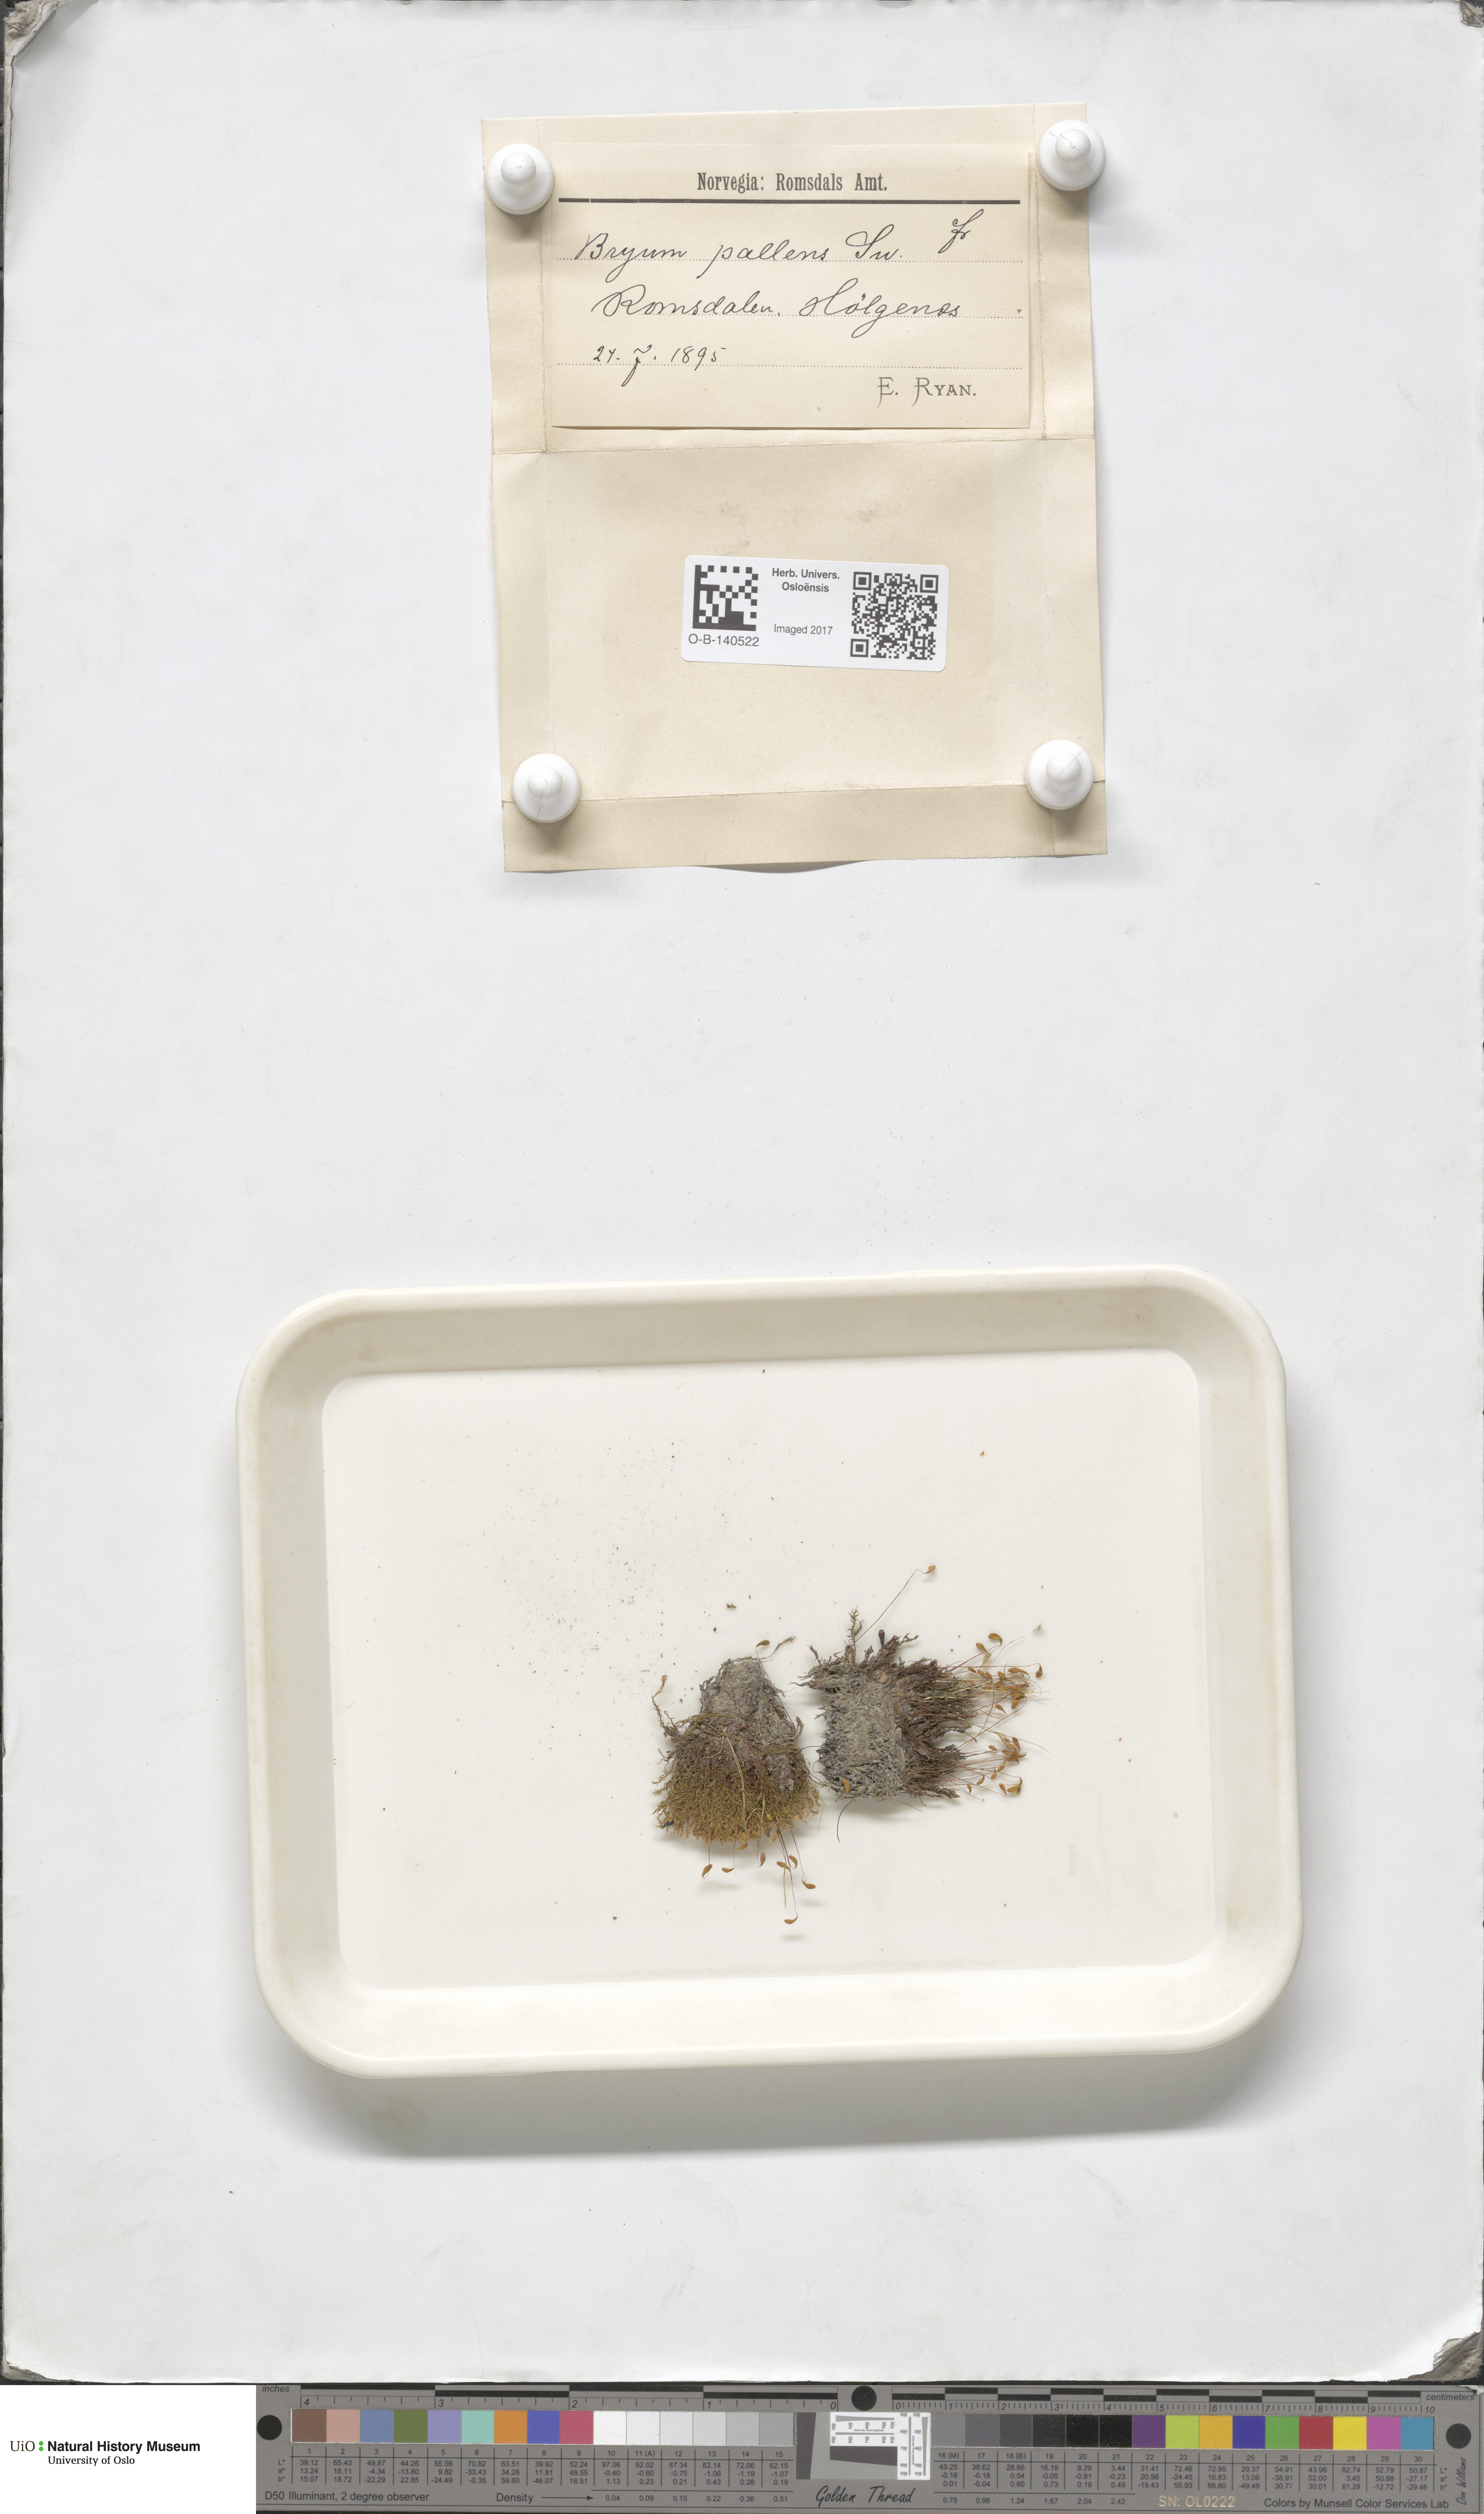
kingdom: Plantae
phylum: Bryophyta
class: Bryopsida
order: Bryales
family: Bryaceae
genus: Ptychostomum
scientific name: Ptychostomum pallens
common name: Pale thread-moss
